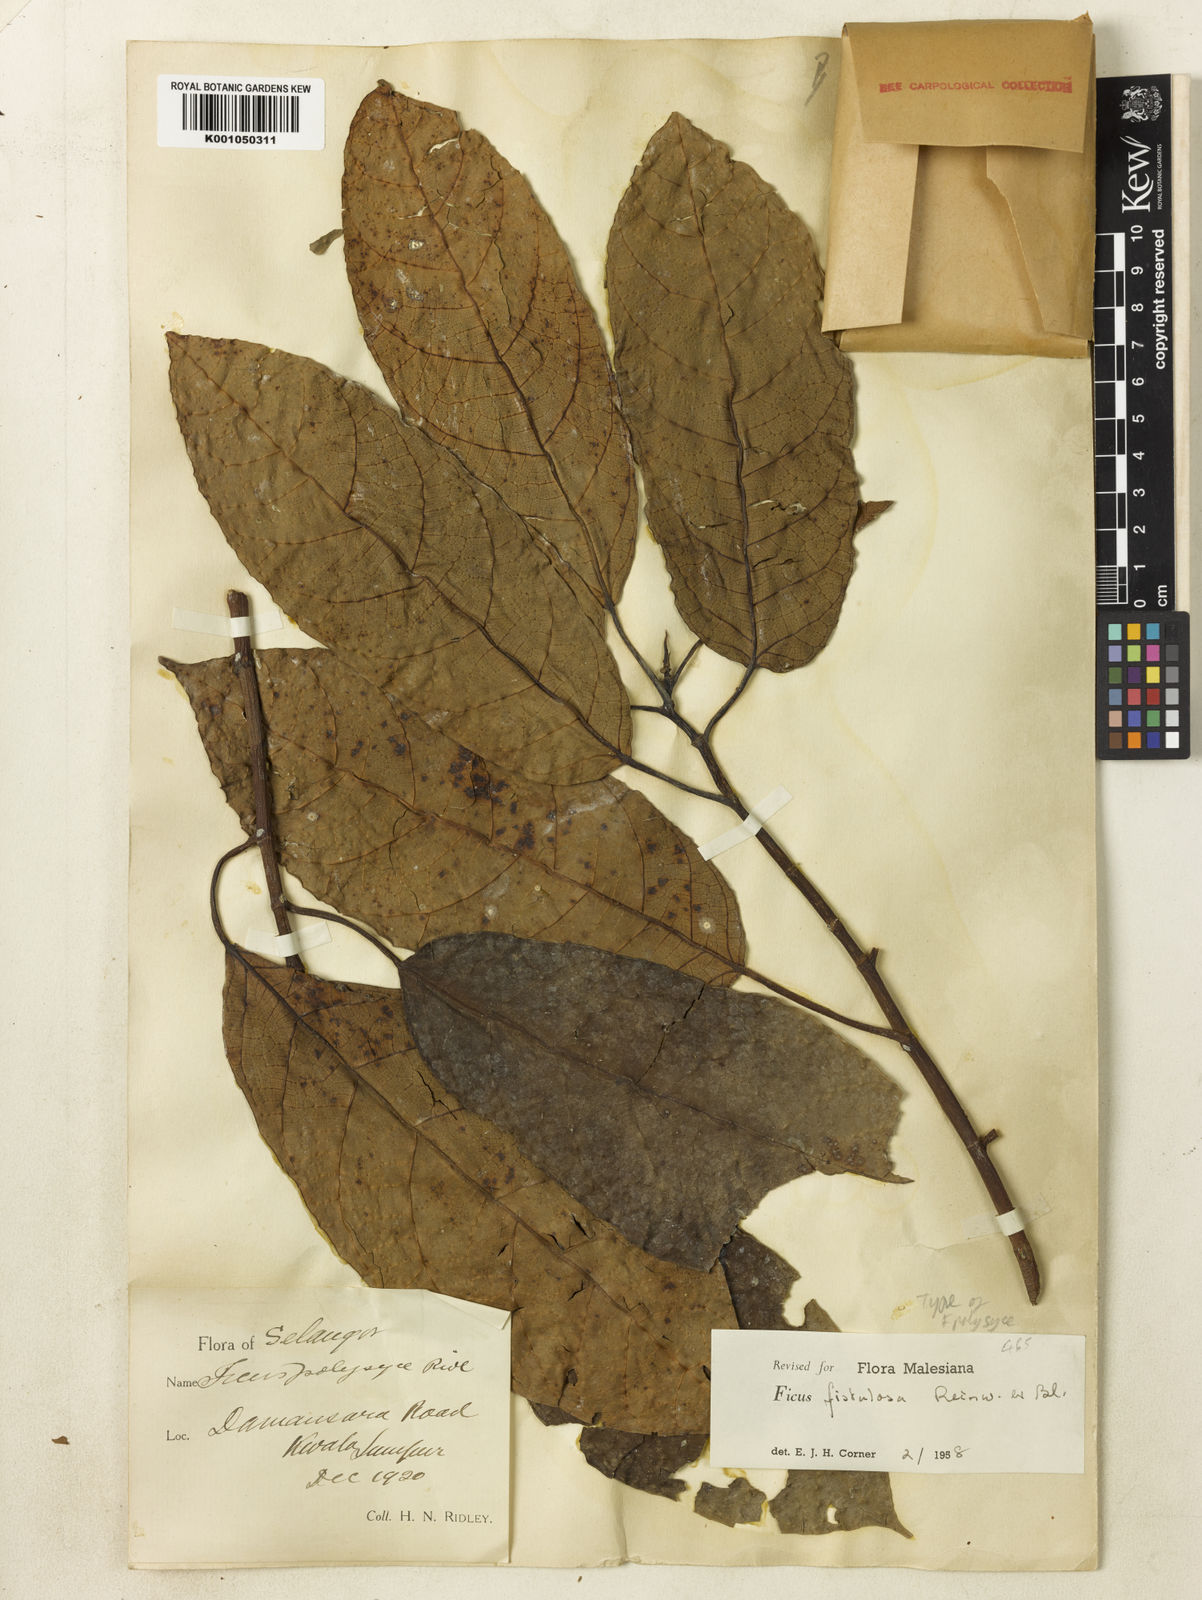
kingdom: Plantae
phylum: Tracheophyta
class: Magnoliopsida
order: Rosales
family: Moraceae
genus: Ficus
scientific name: Ficus fistulosa
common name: Figs
